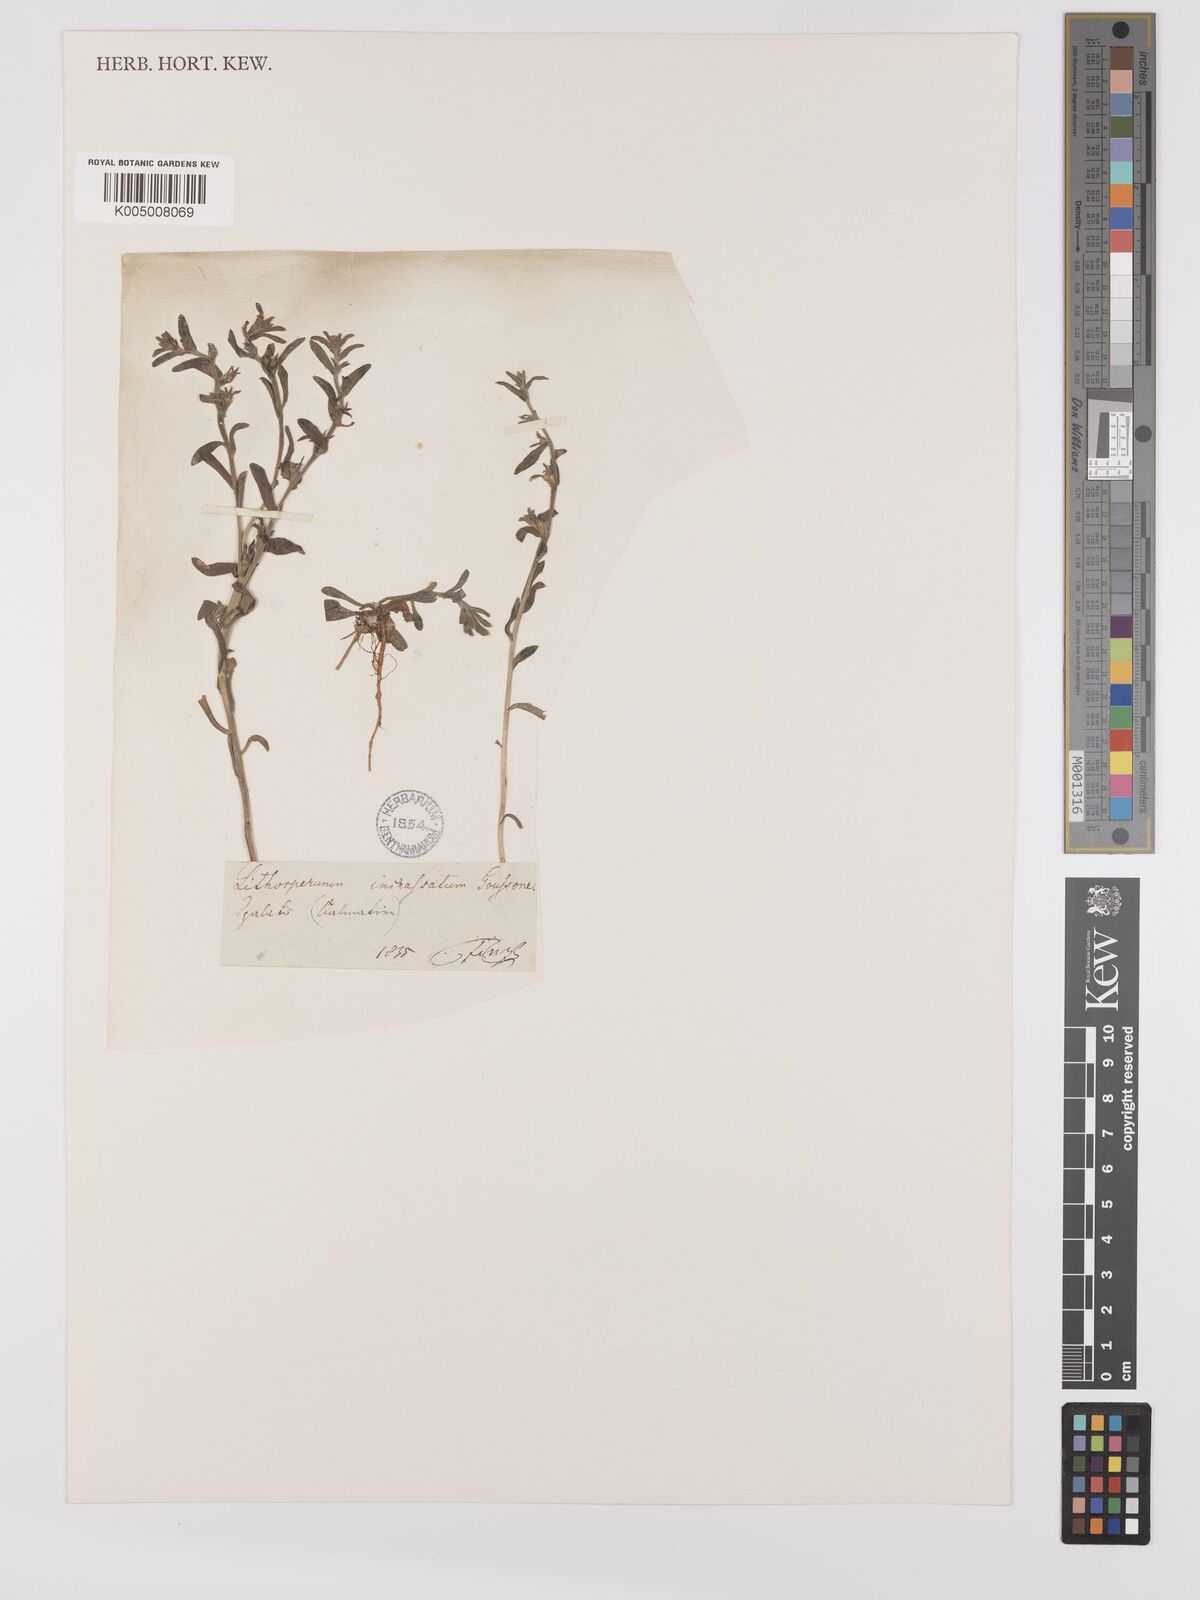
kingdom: Plantae
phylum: Tracheophyta
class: Magnoliopsida
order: Boraginales
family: Boraginaceae
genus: Buglossoides
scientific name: Buglossoides incrassata
